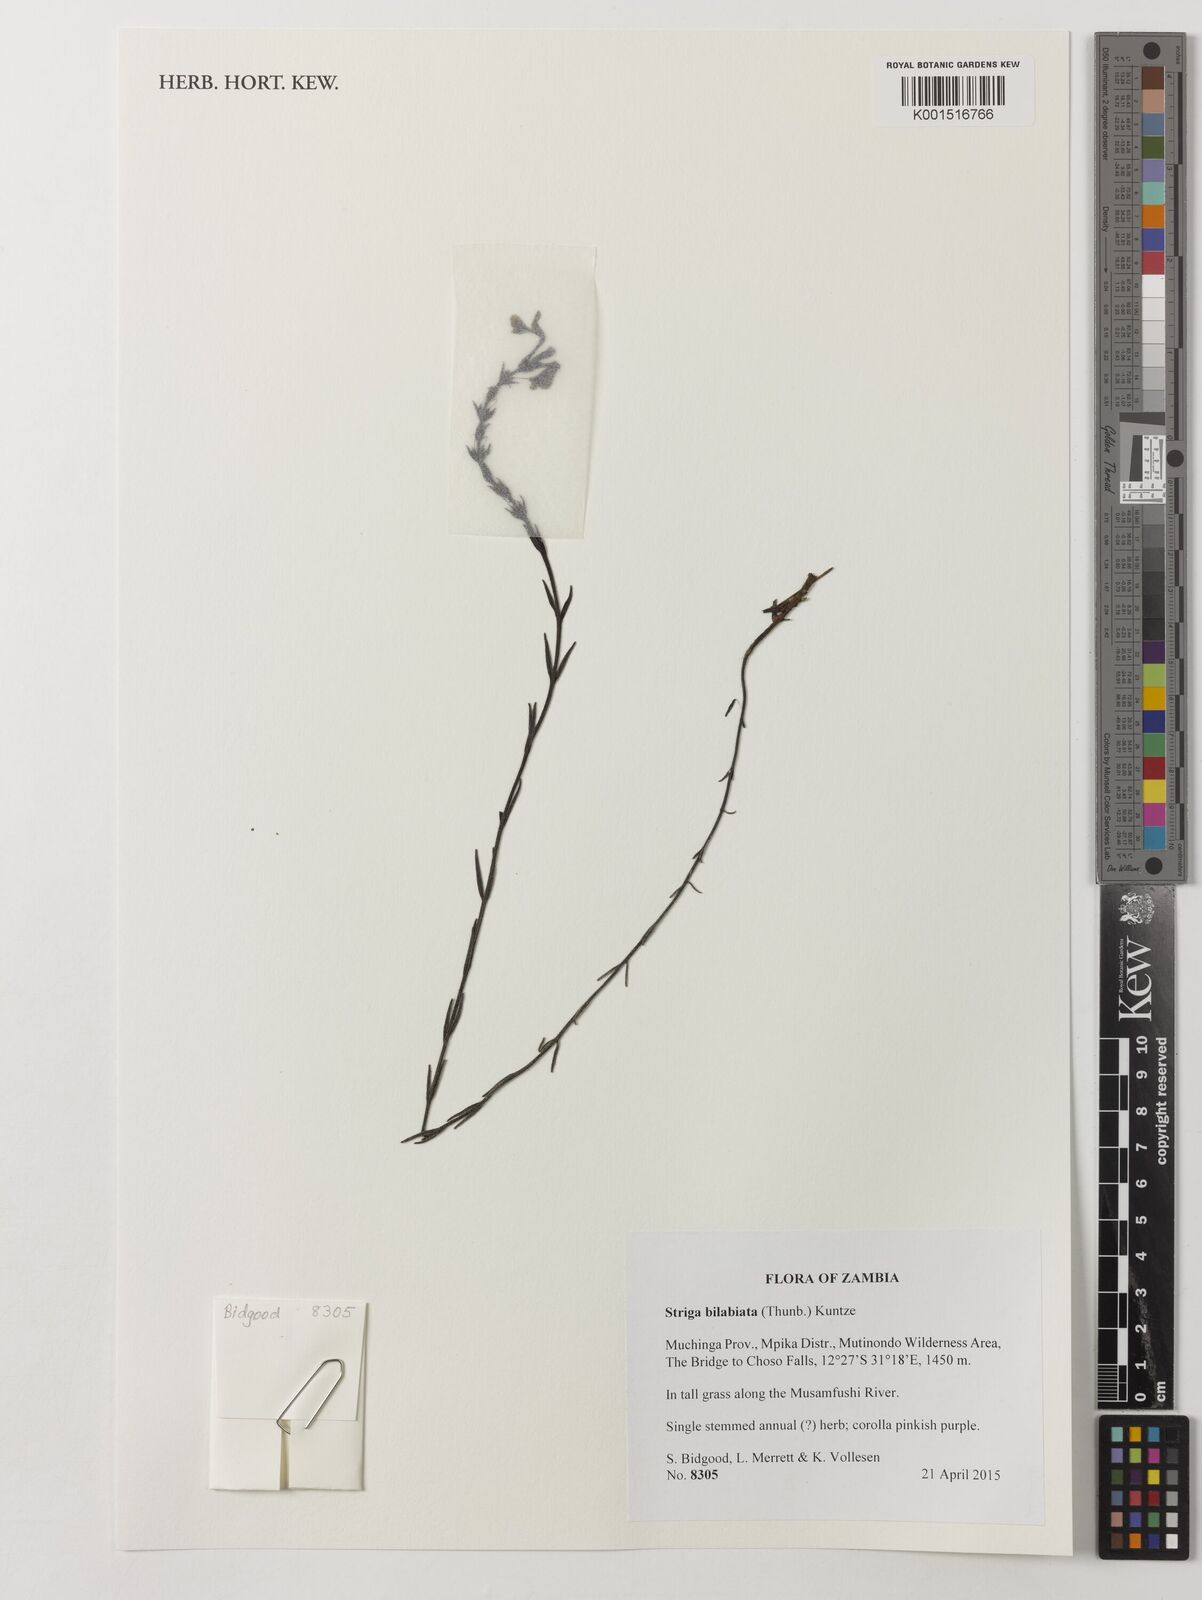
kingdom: Plantae
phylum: Tracheophyta
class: Magnoliopsida
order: Lamiales
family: Orobanchaceae
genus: Striga
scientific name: Striga bilabiata
